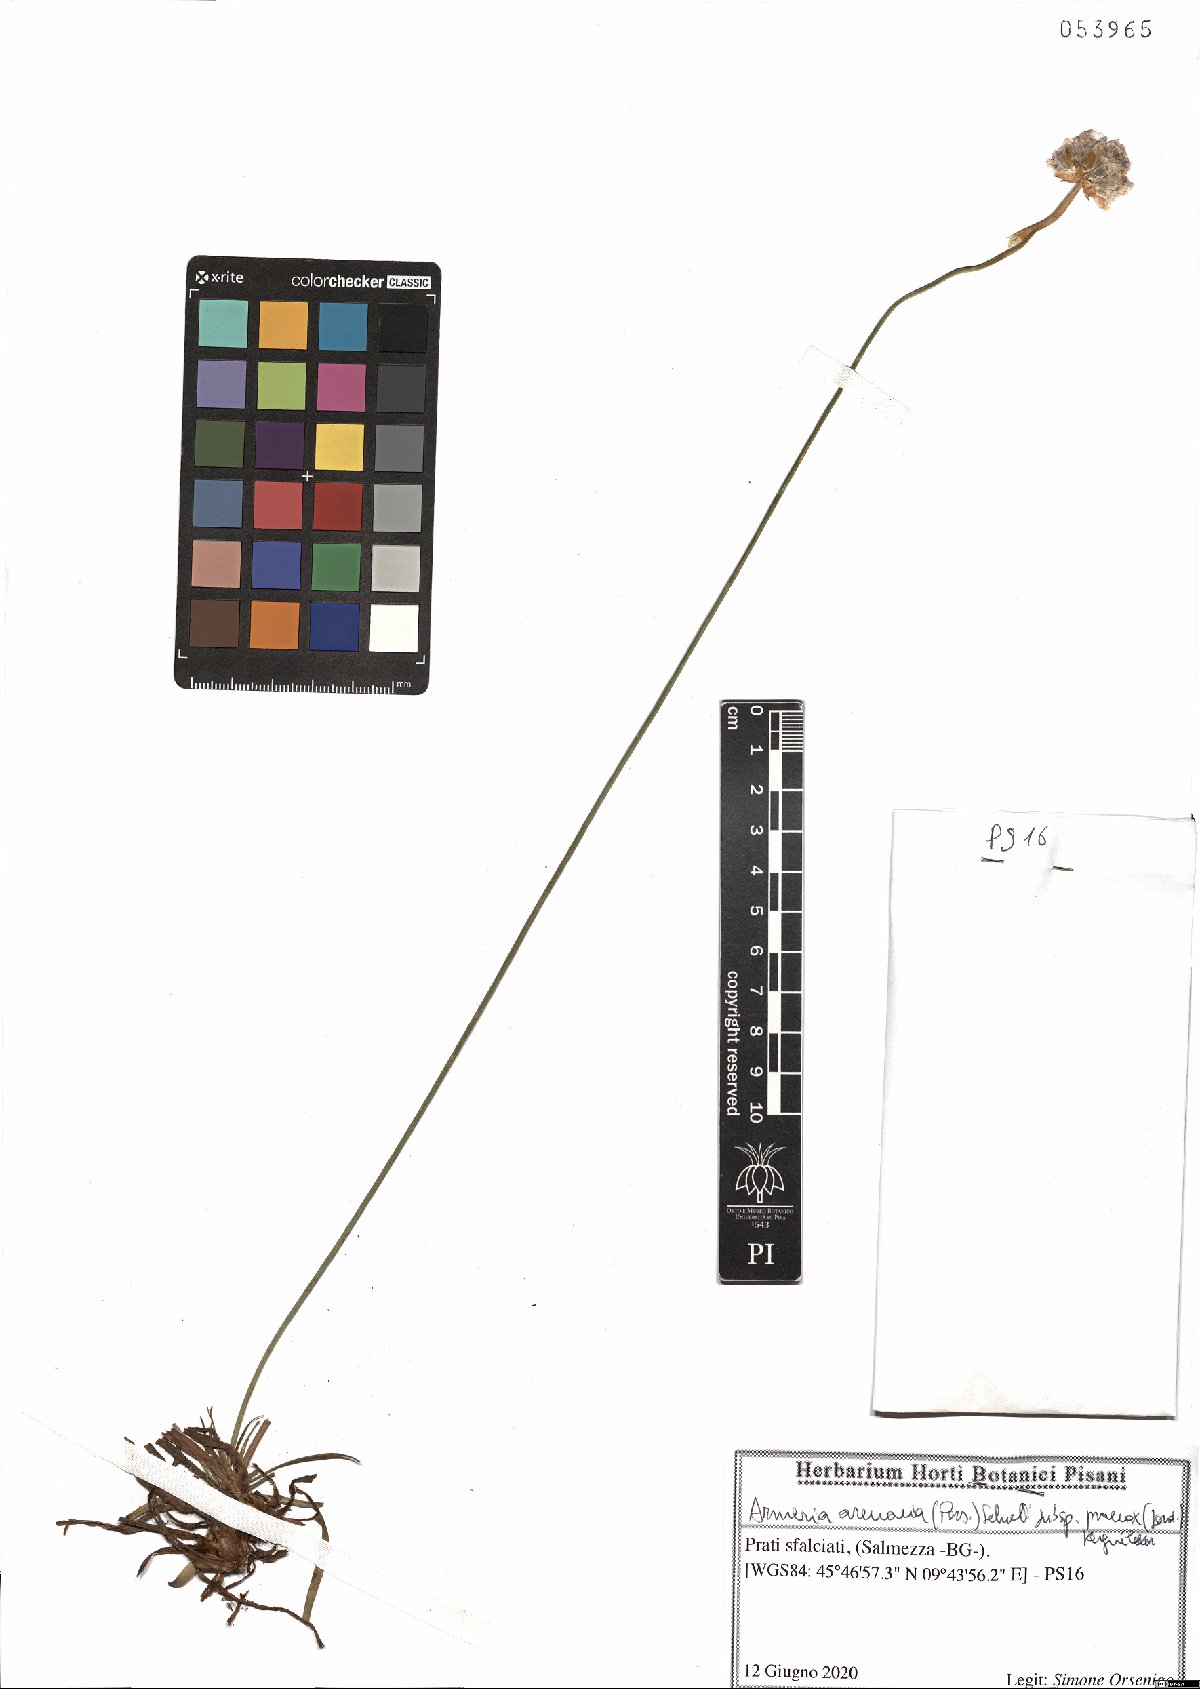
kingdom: Plantae
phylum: Tracheophyta
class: Magnoliopsida
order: Caryophyllales
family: Plumbaginaceae
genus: Armeria
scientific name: Armeria arenaria
